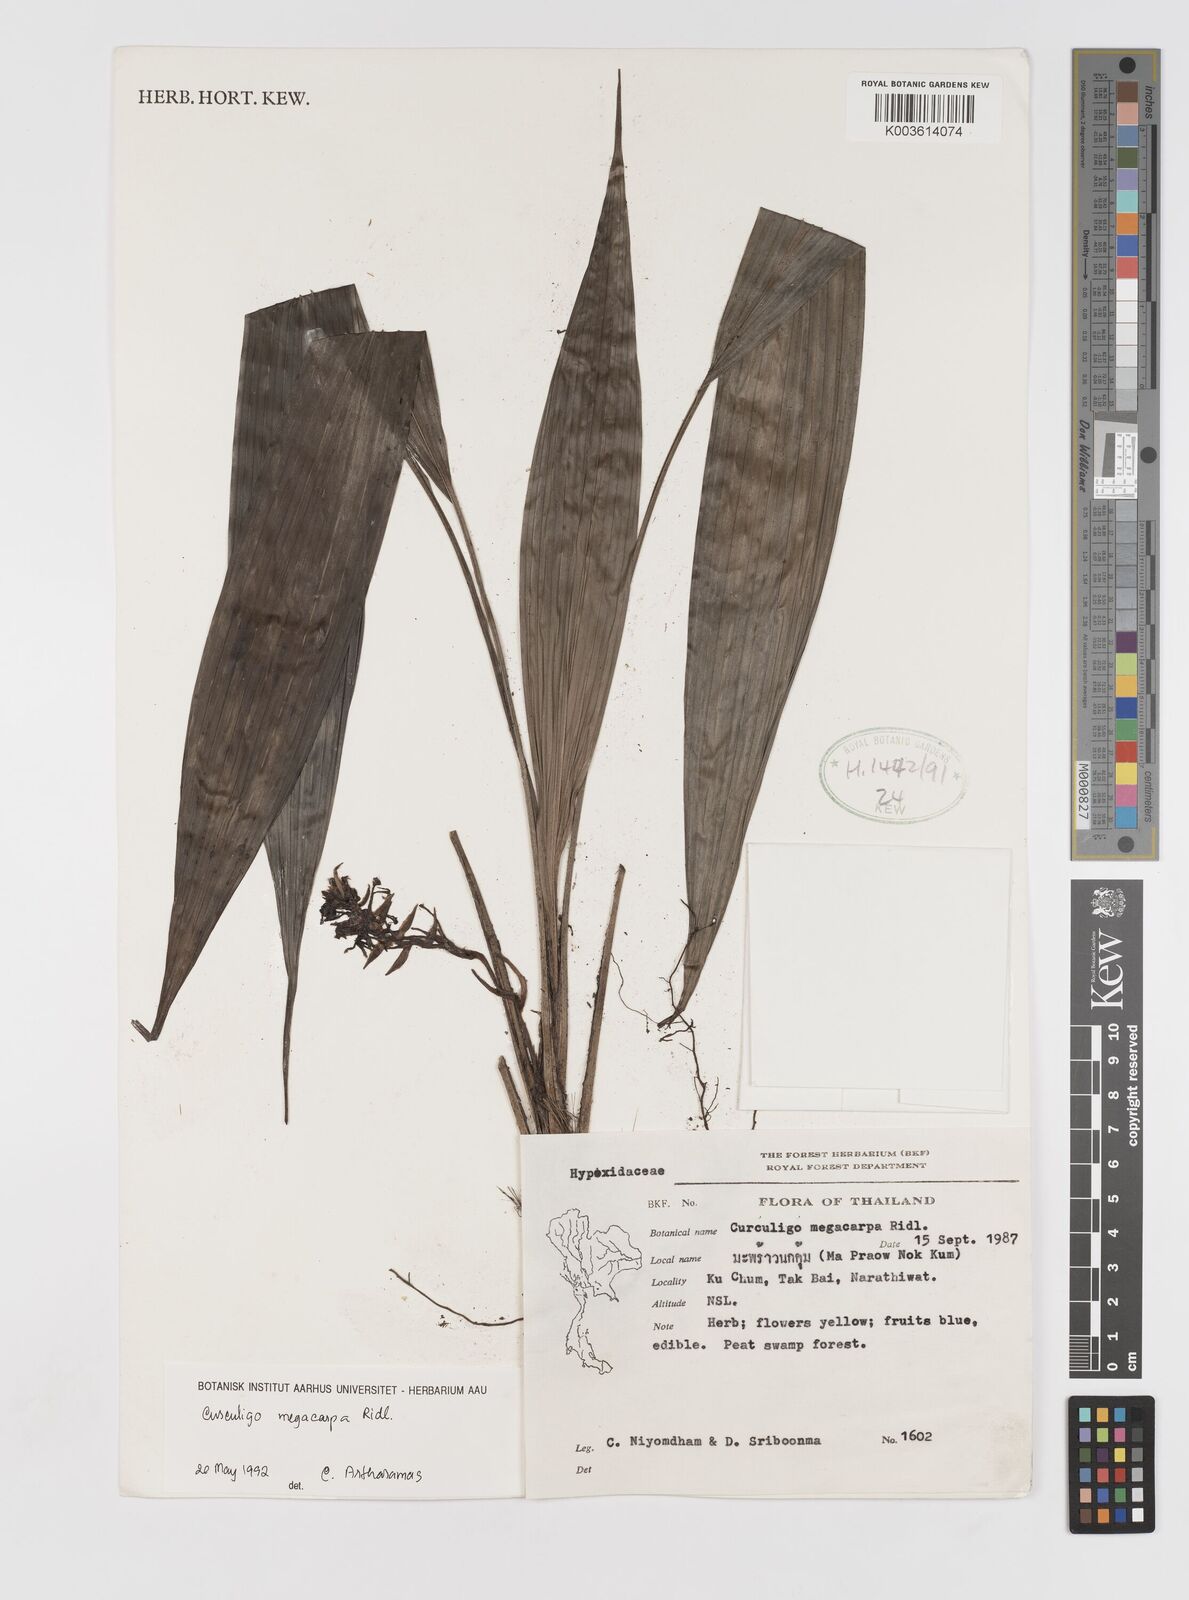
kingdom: Plantae
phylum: Tracheophyta
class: Liliopsida
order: Asparagales
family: Hypoxidaceae
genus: Curculigo
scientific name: Curculigo latifolia
